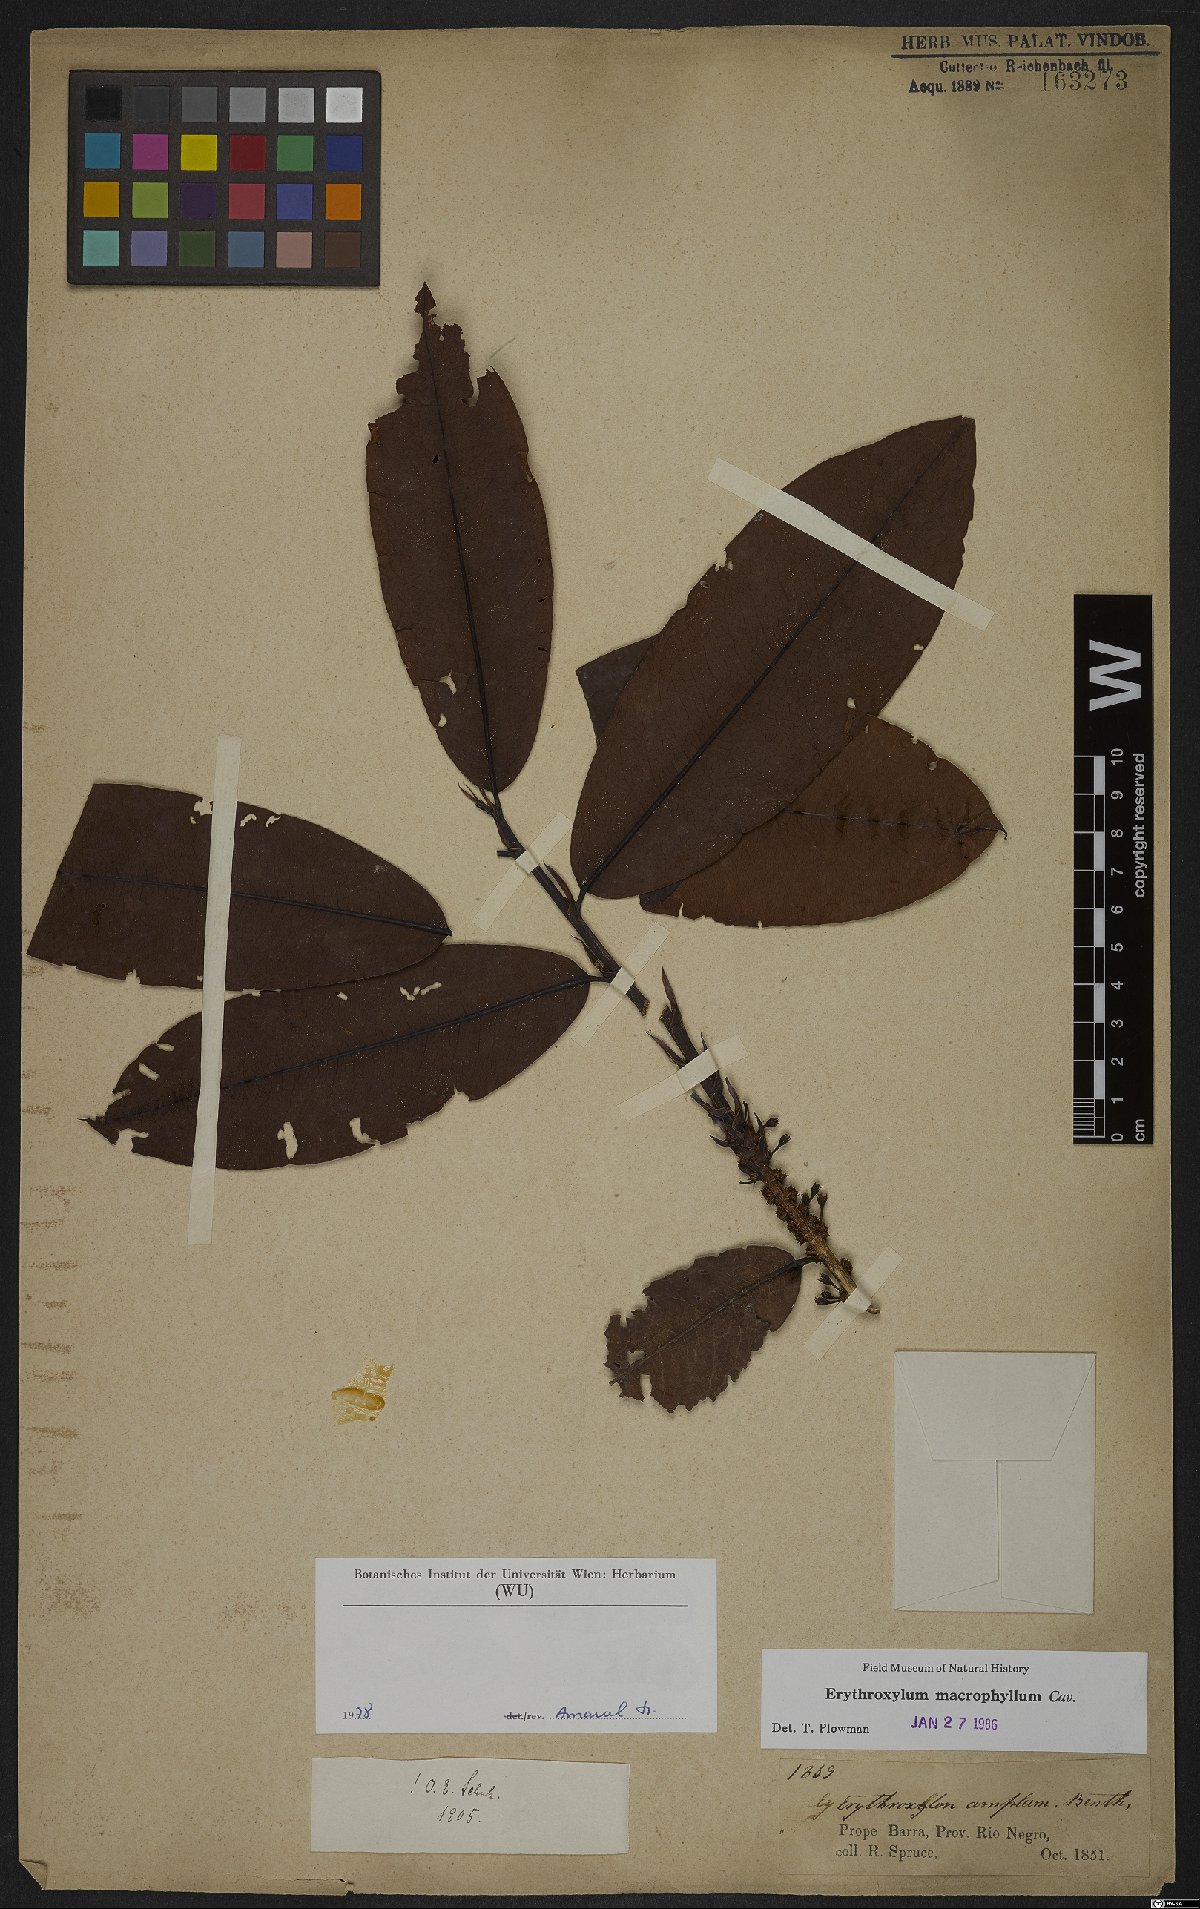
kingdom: Plantae
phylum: Tracheophyta
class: Magnoliopsida
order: Malpighiales
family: Erythroxylaceae
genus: Erythroxylum
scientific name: Erythroxylum macrophyllum
